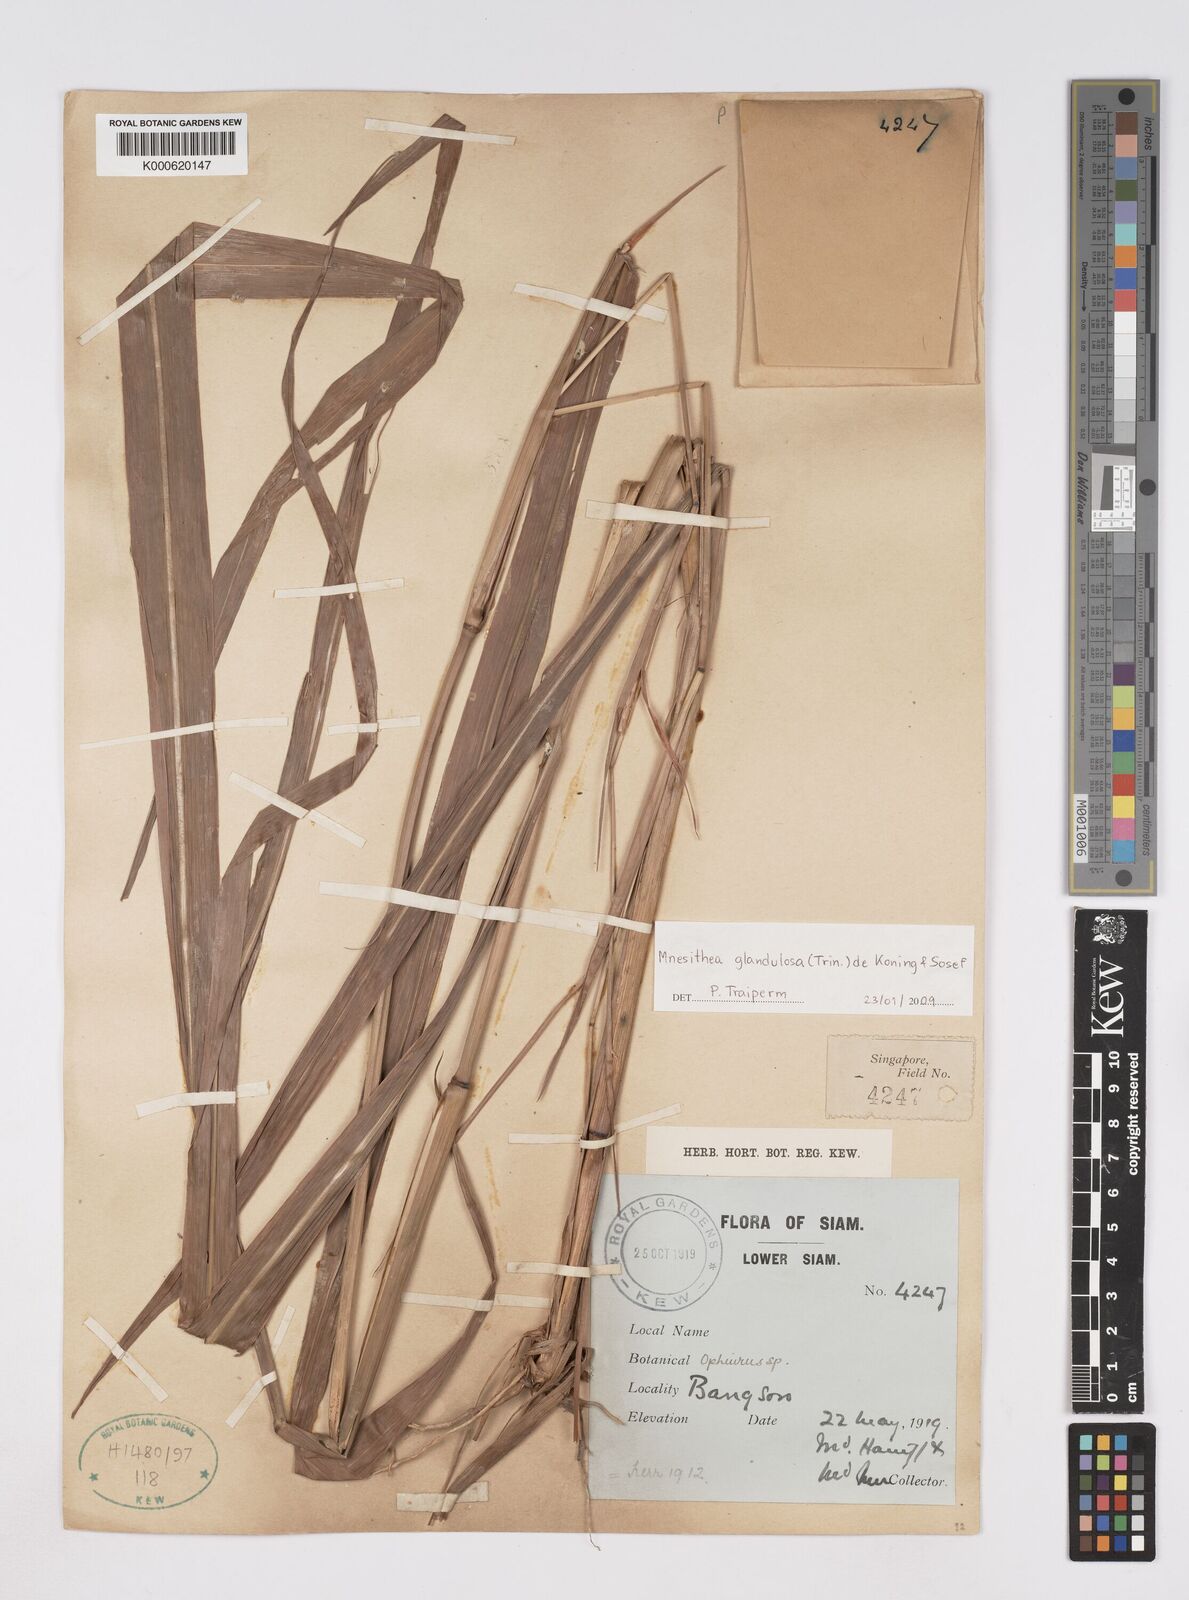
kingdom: Plantae
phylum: Tracheophyta
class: Liliopsida
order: Poales
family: Poaceae
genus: Rottboellia
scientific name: Rottboellia glandulosa
